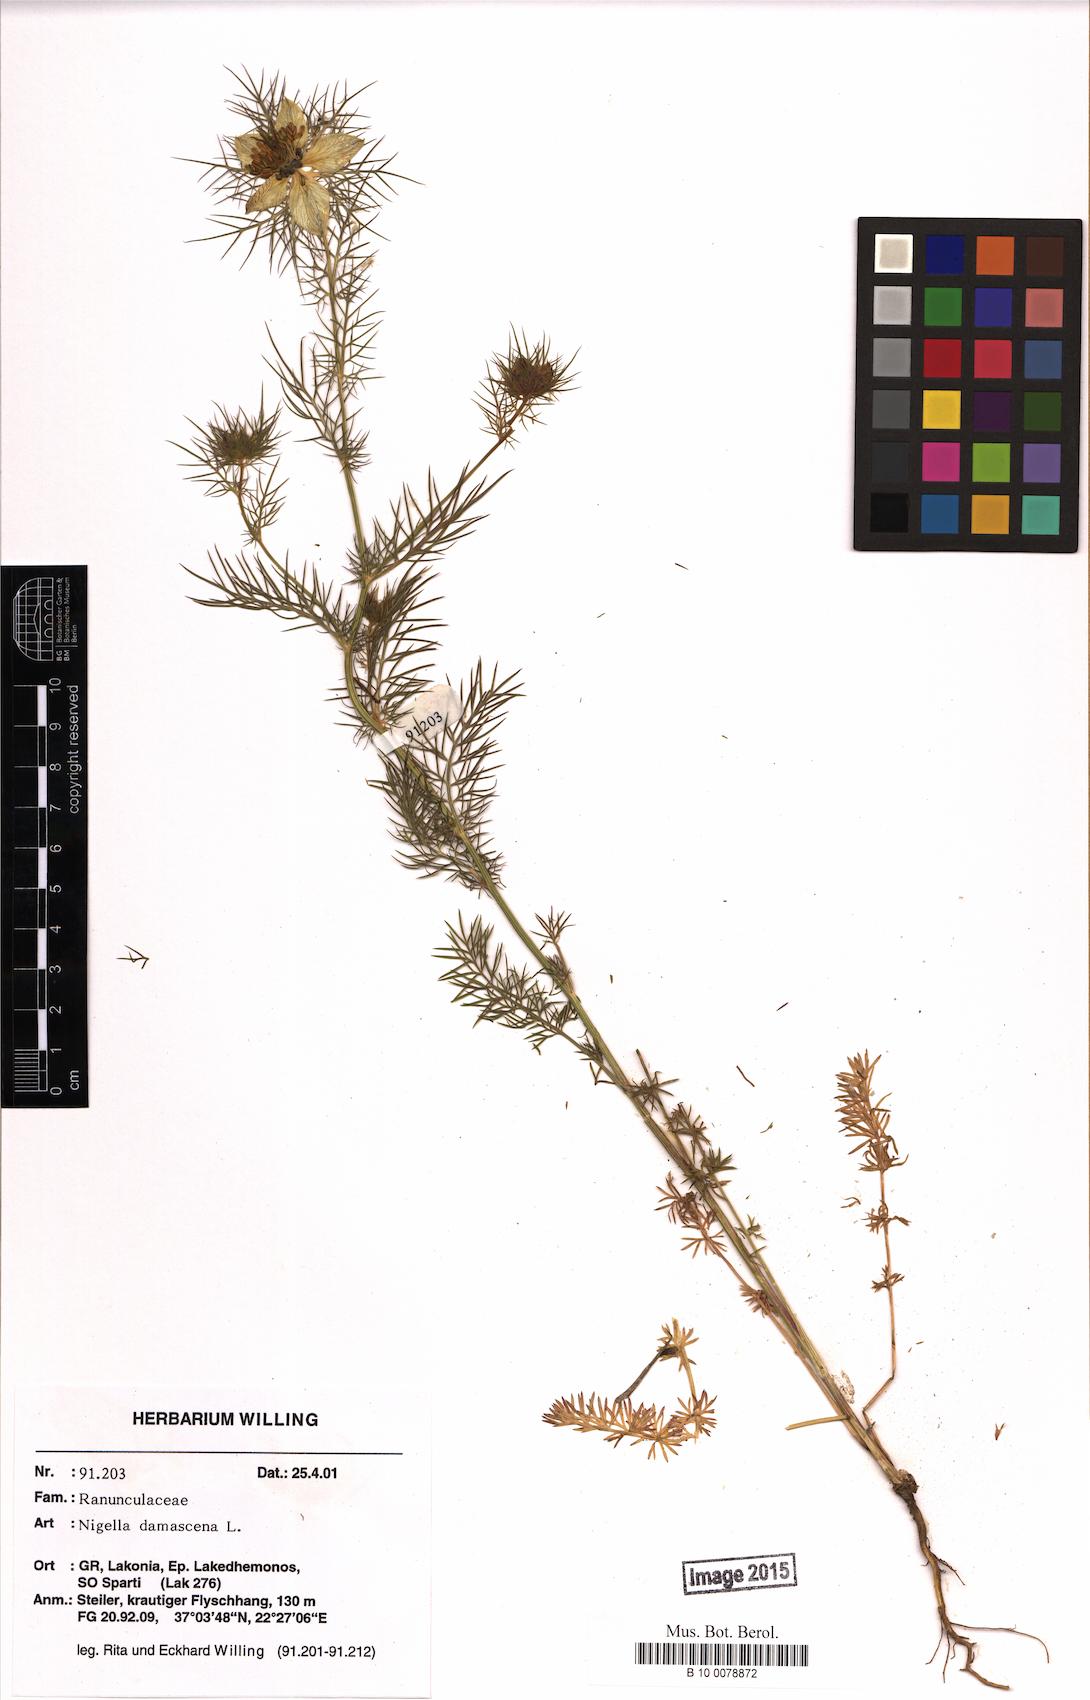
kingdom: Plantae
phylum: Tracheophyta
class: Magnoliopsida
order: Ranunculales
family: Ranunculaceae
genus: Nigella
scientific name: Nigella damascena
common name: Love-in-a-mist
